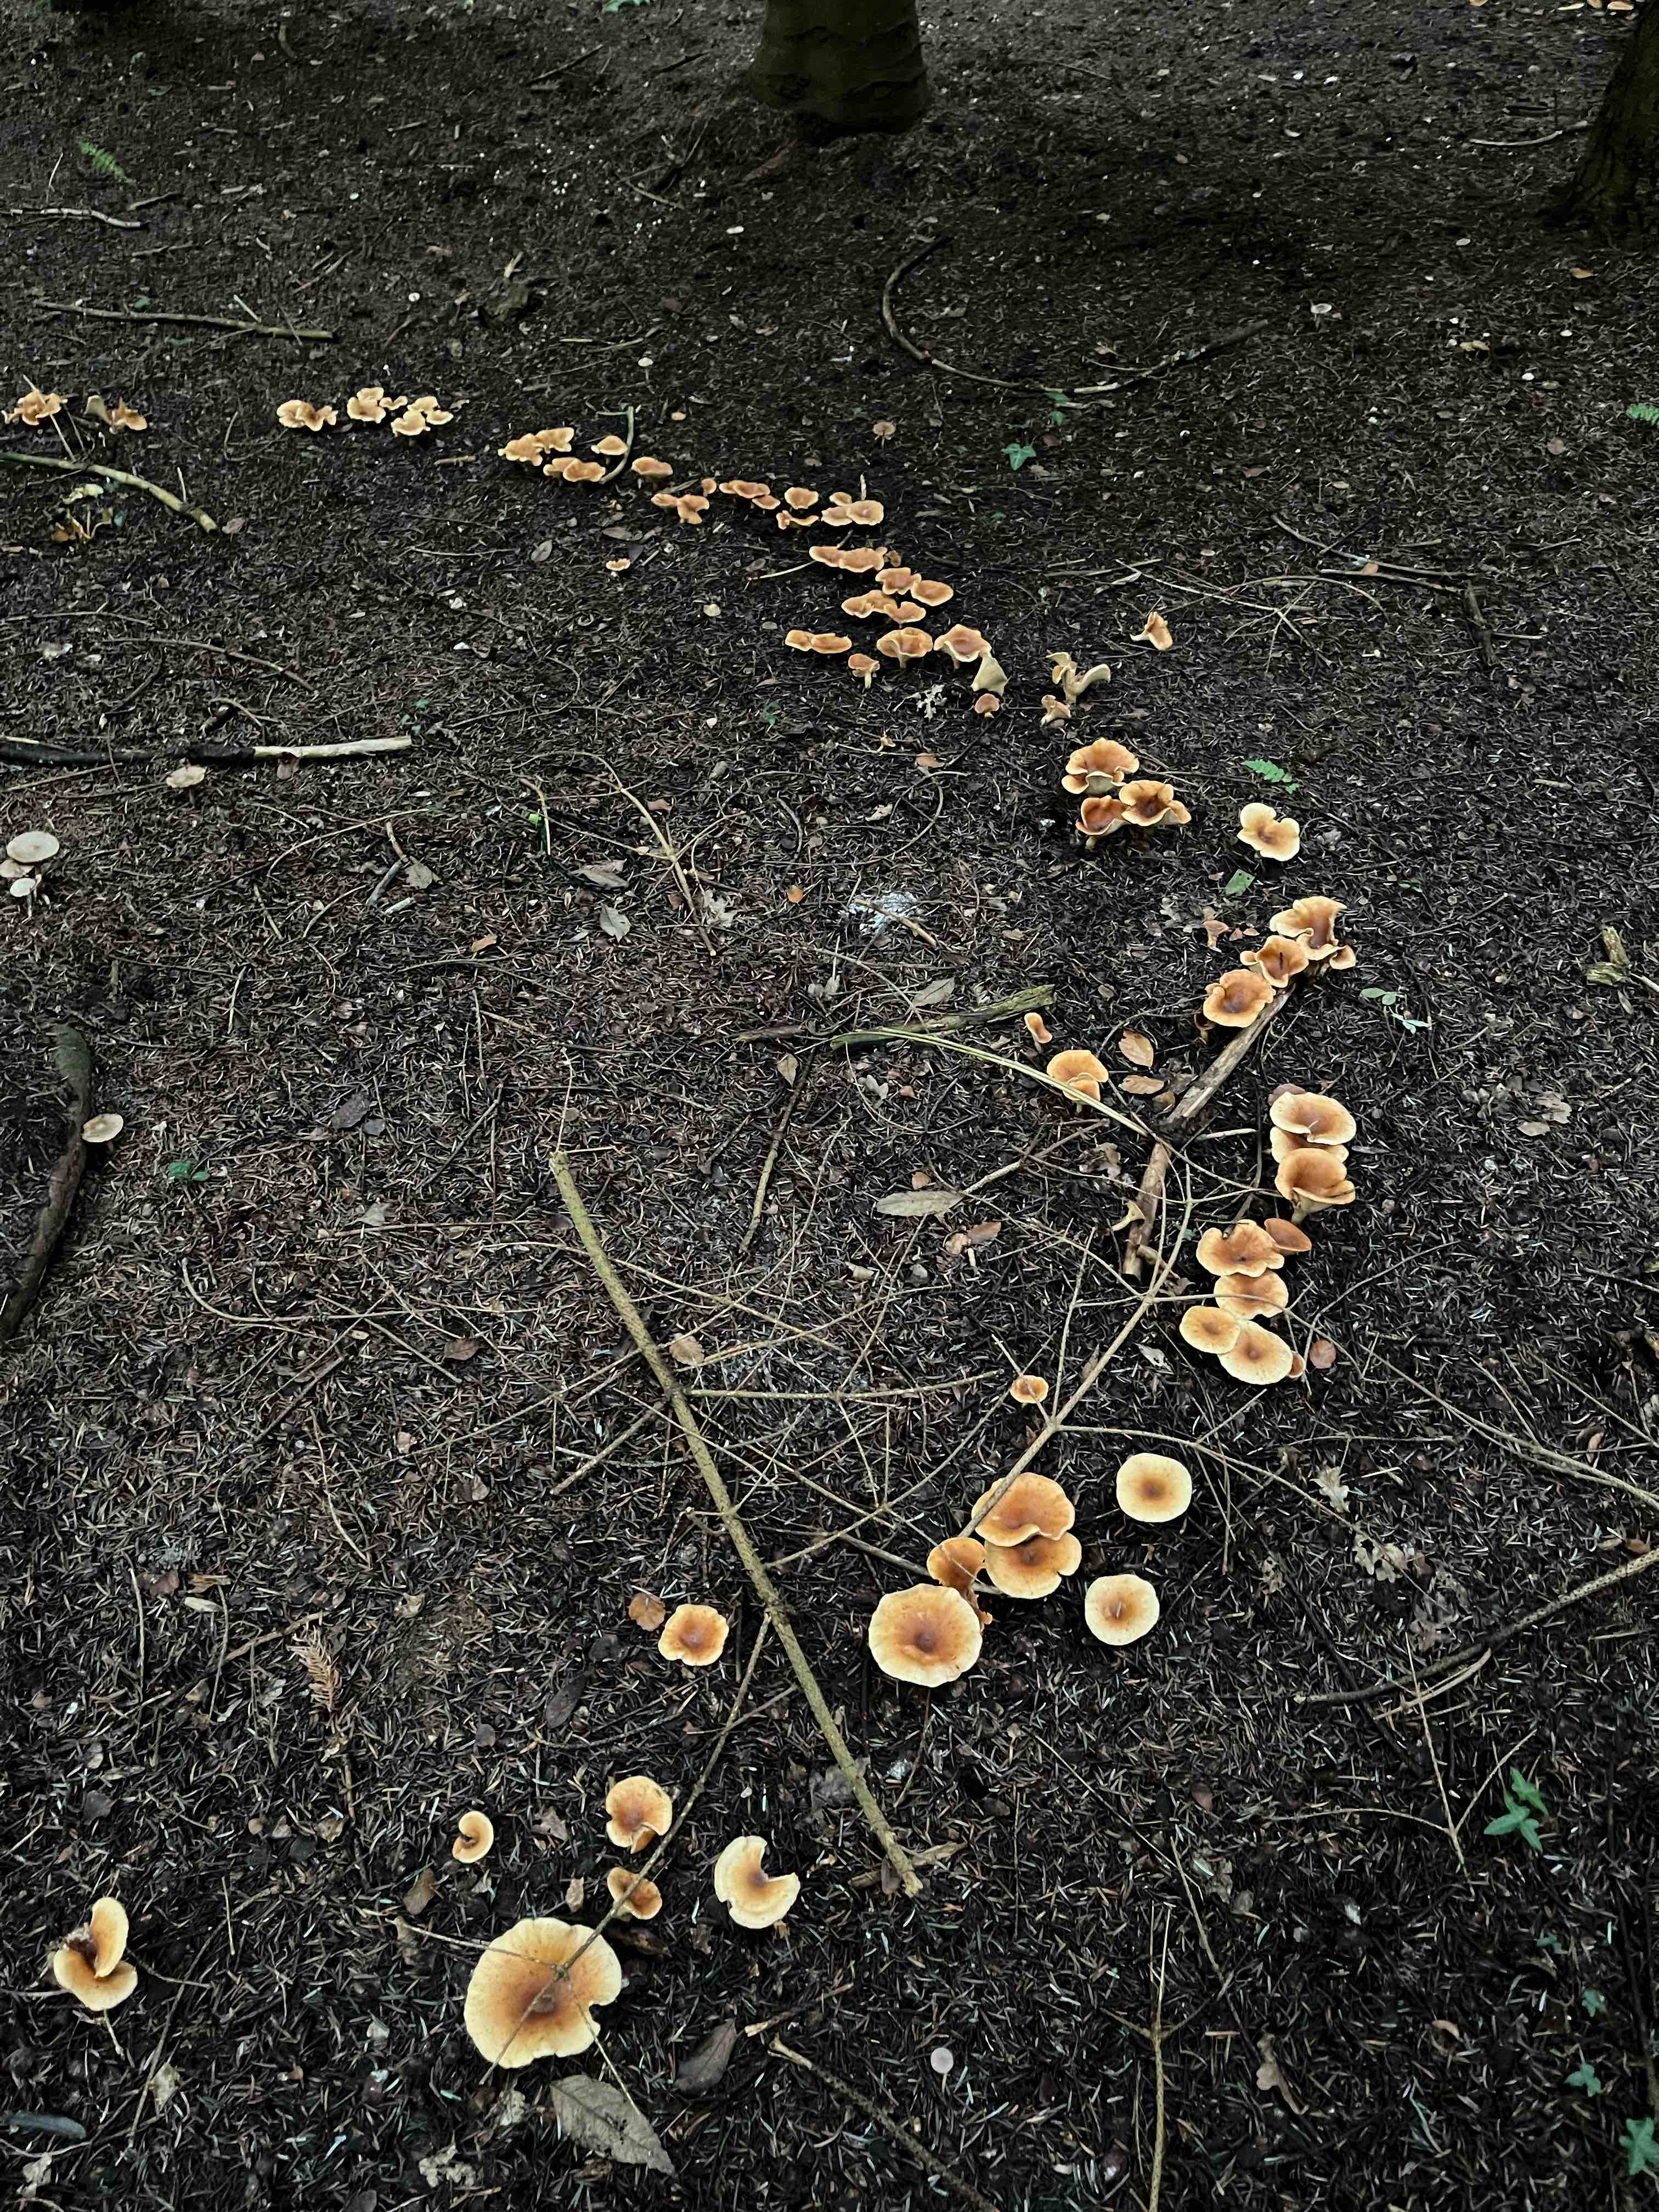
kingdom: Fungi
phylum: Basidiomycota
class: Agaricomycetes
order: Agaricales
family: Tricholomataceae
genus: Paralepista
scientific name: Paralepista flaccida
